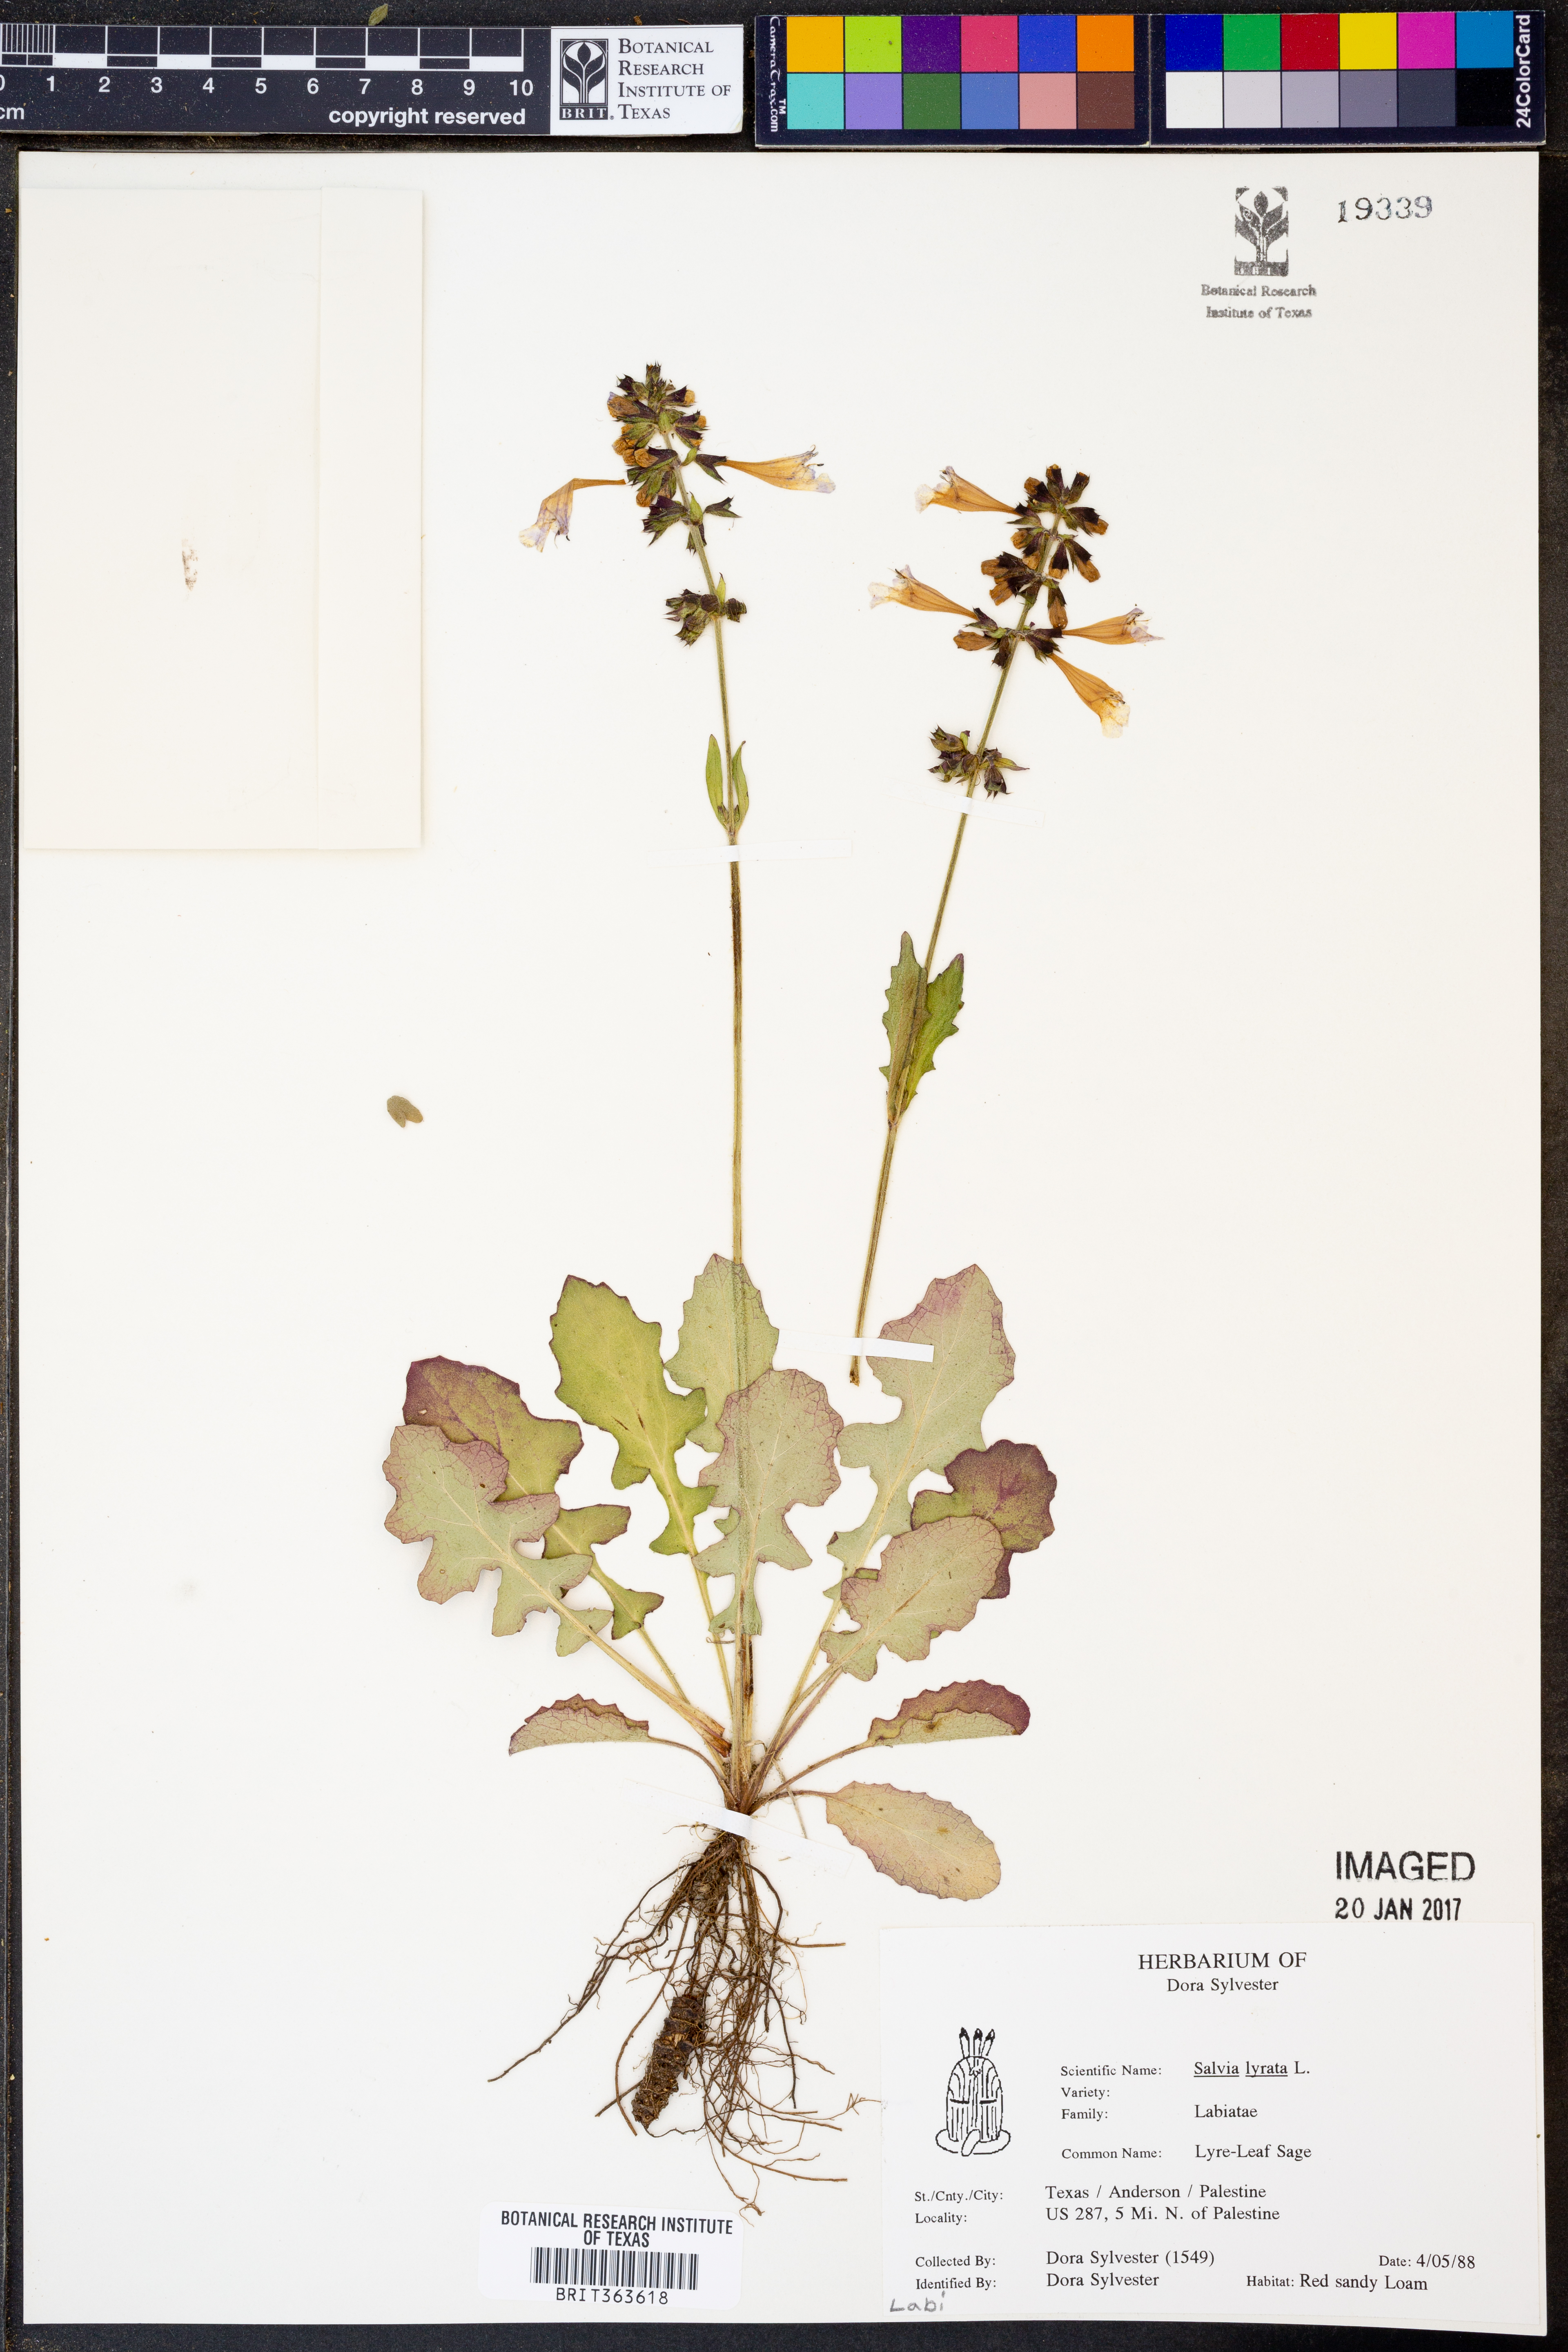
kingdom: Plantae
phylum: Tracheophyta
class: Magnoliopsida
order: Lamiales
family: Lamiaceae
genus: Salvia
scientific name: Salvia lyrata
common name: Cancerweed
